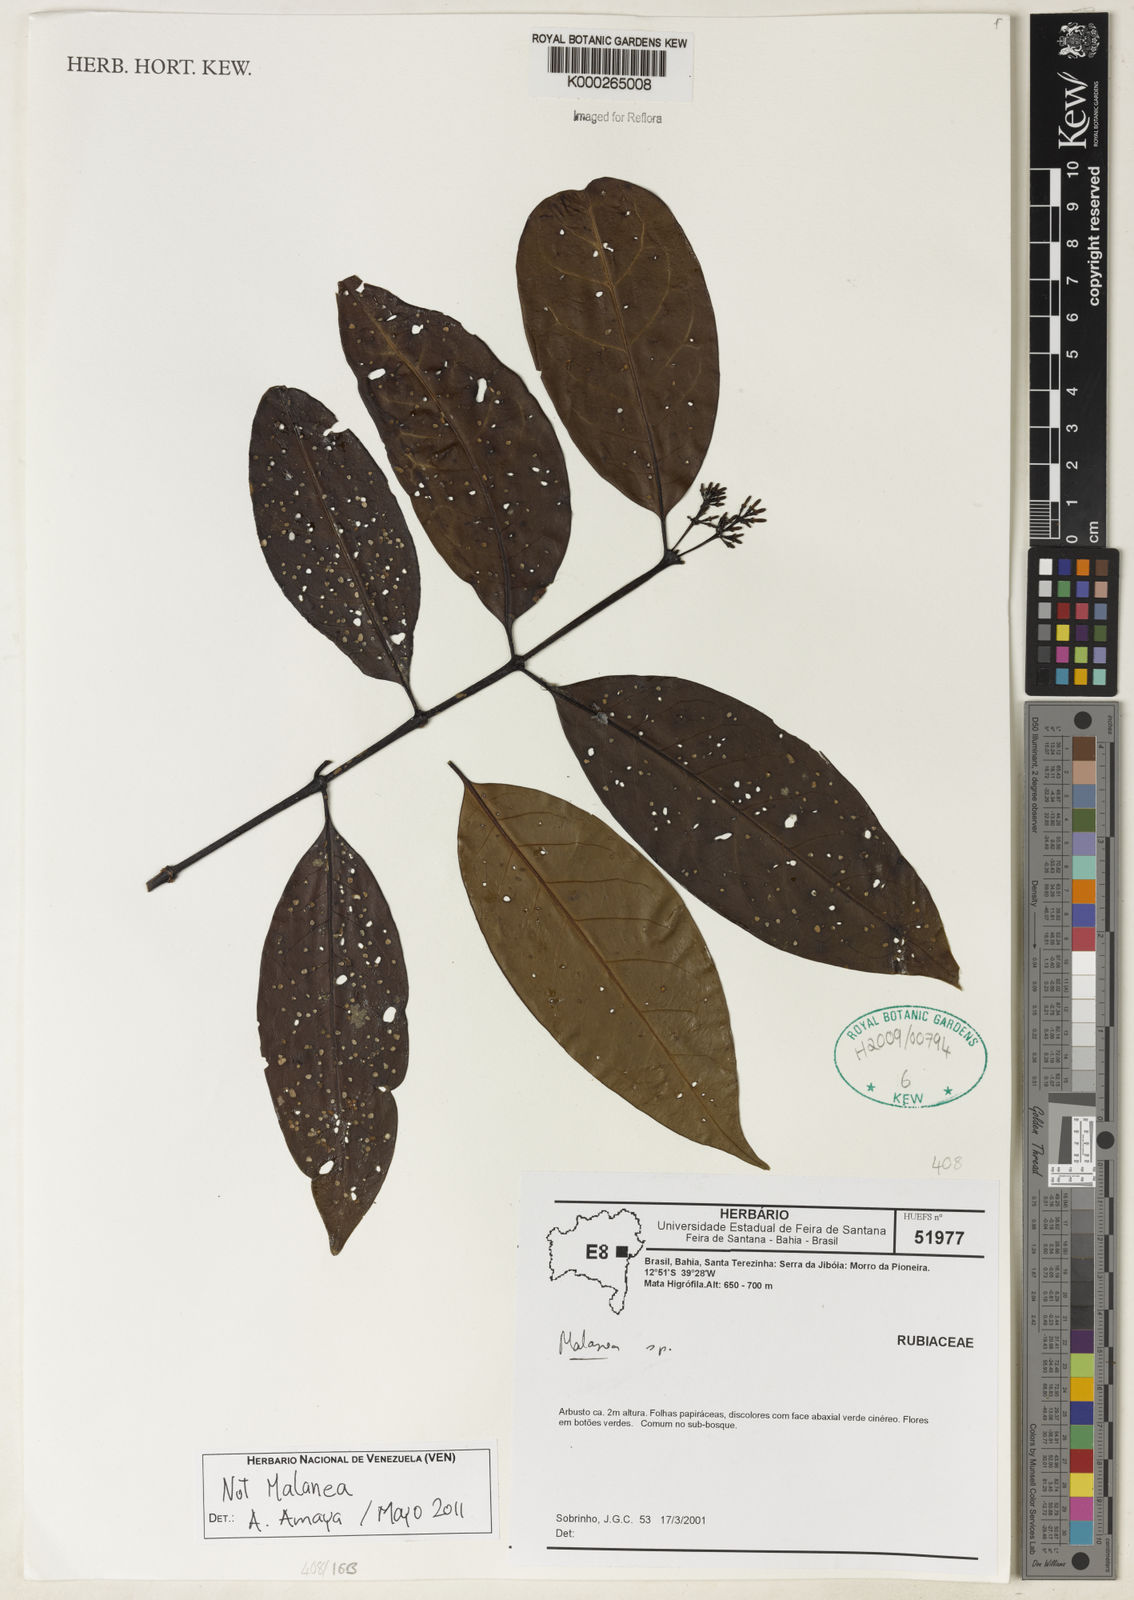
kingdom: Plantae
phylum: Tracheophyta
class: Magnoliopsida
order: Gentianales
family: Rubiaceae
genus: Malanea
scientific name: Malanea
